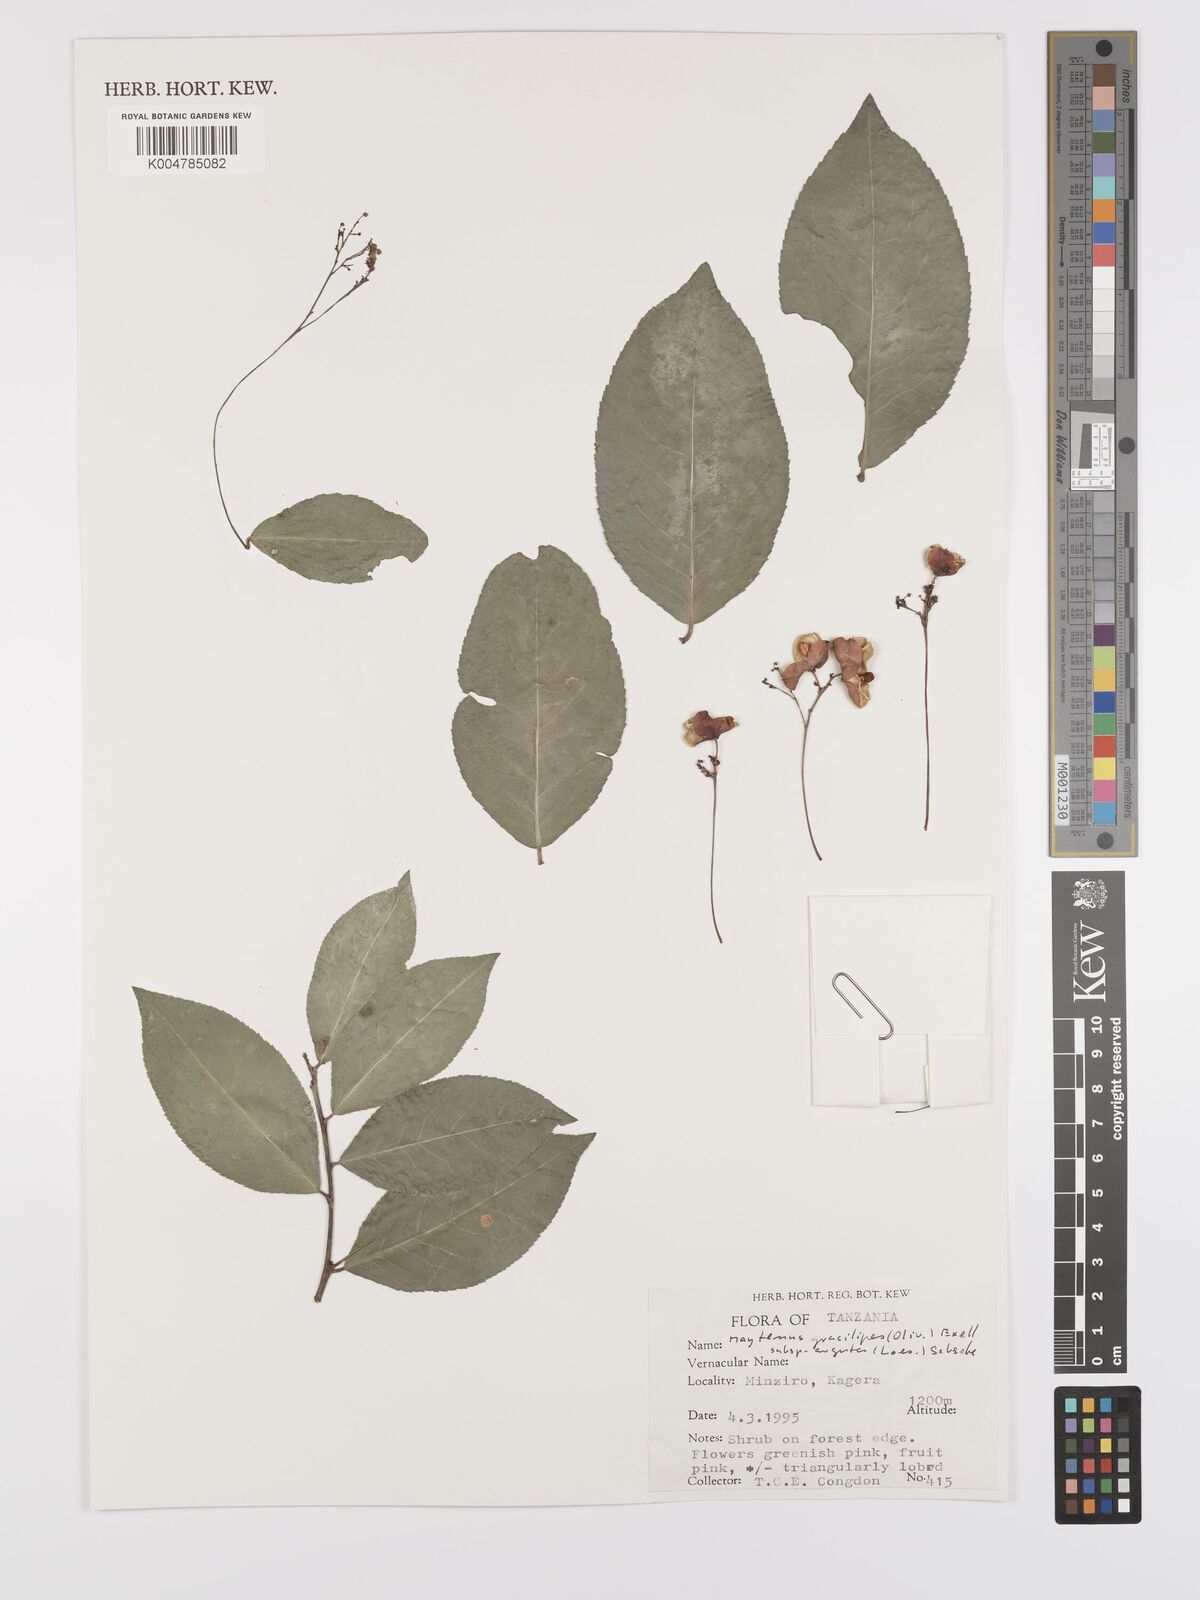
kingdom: Plantae
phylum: Tracheophyta
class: Magnoliopsida
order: Celastrales
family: Celastraceae
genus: Gymnosporia
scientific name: Gymnosporia gracilipes
